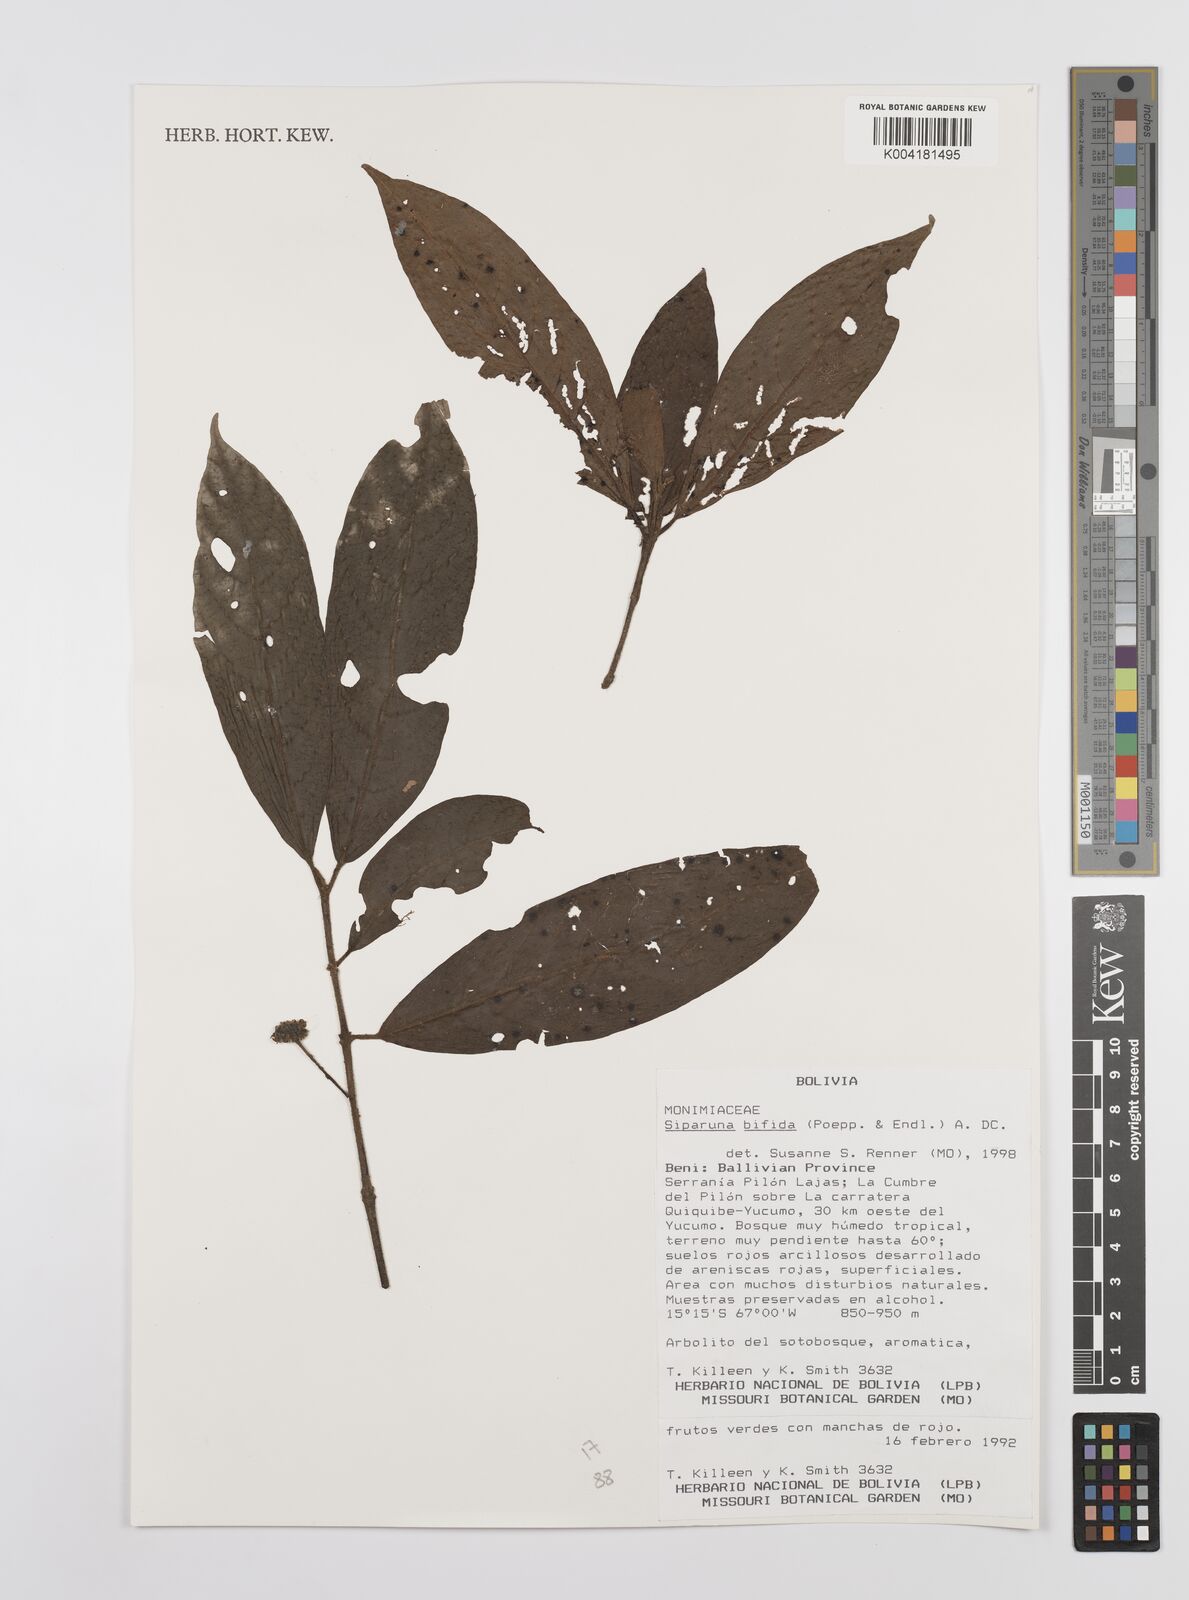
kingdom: Plantae
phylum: Tracheophyta
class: Magnoliopsida
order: Laurales
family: Siparunaceae
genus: Siparuna
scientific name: Siparuna bifida
